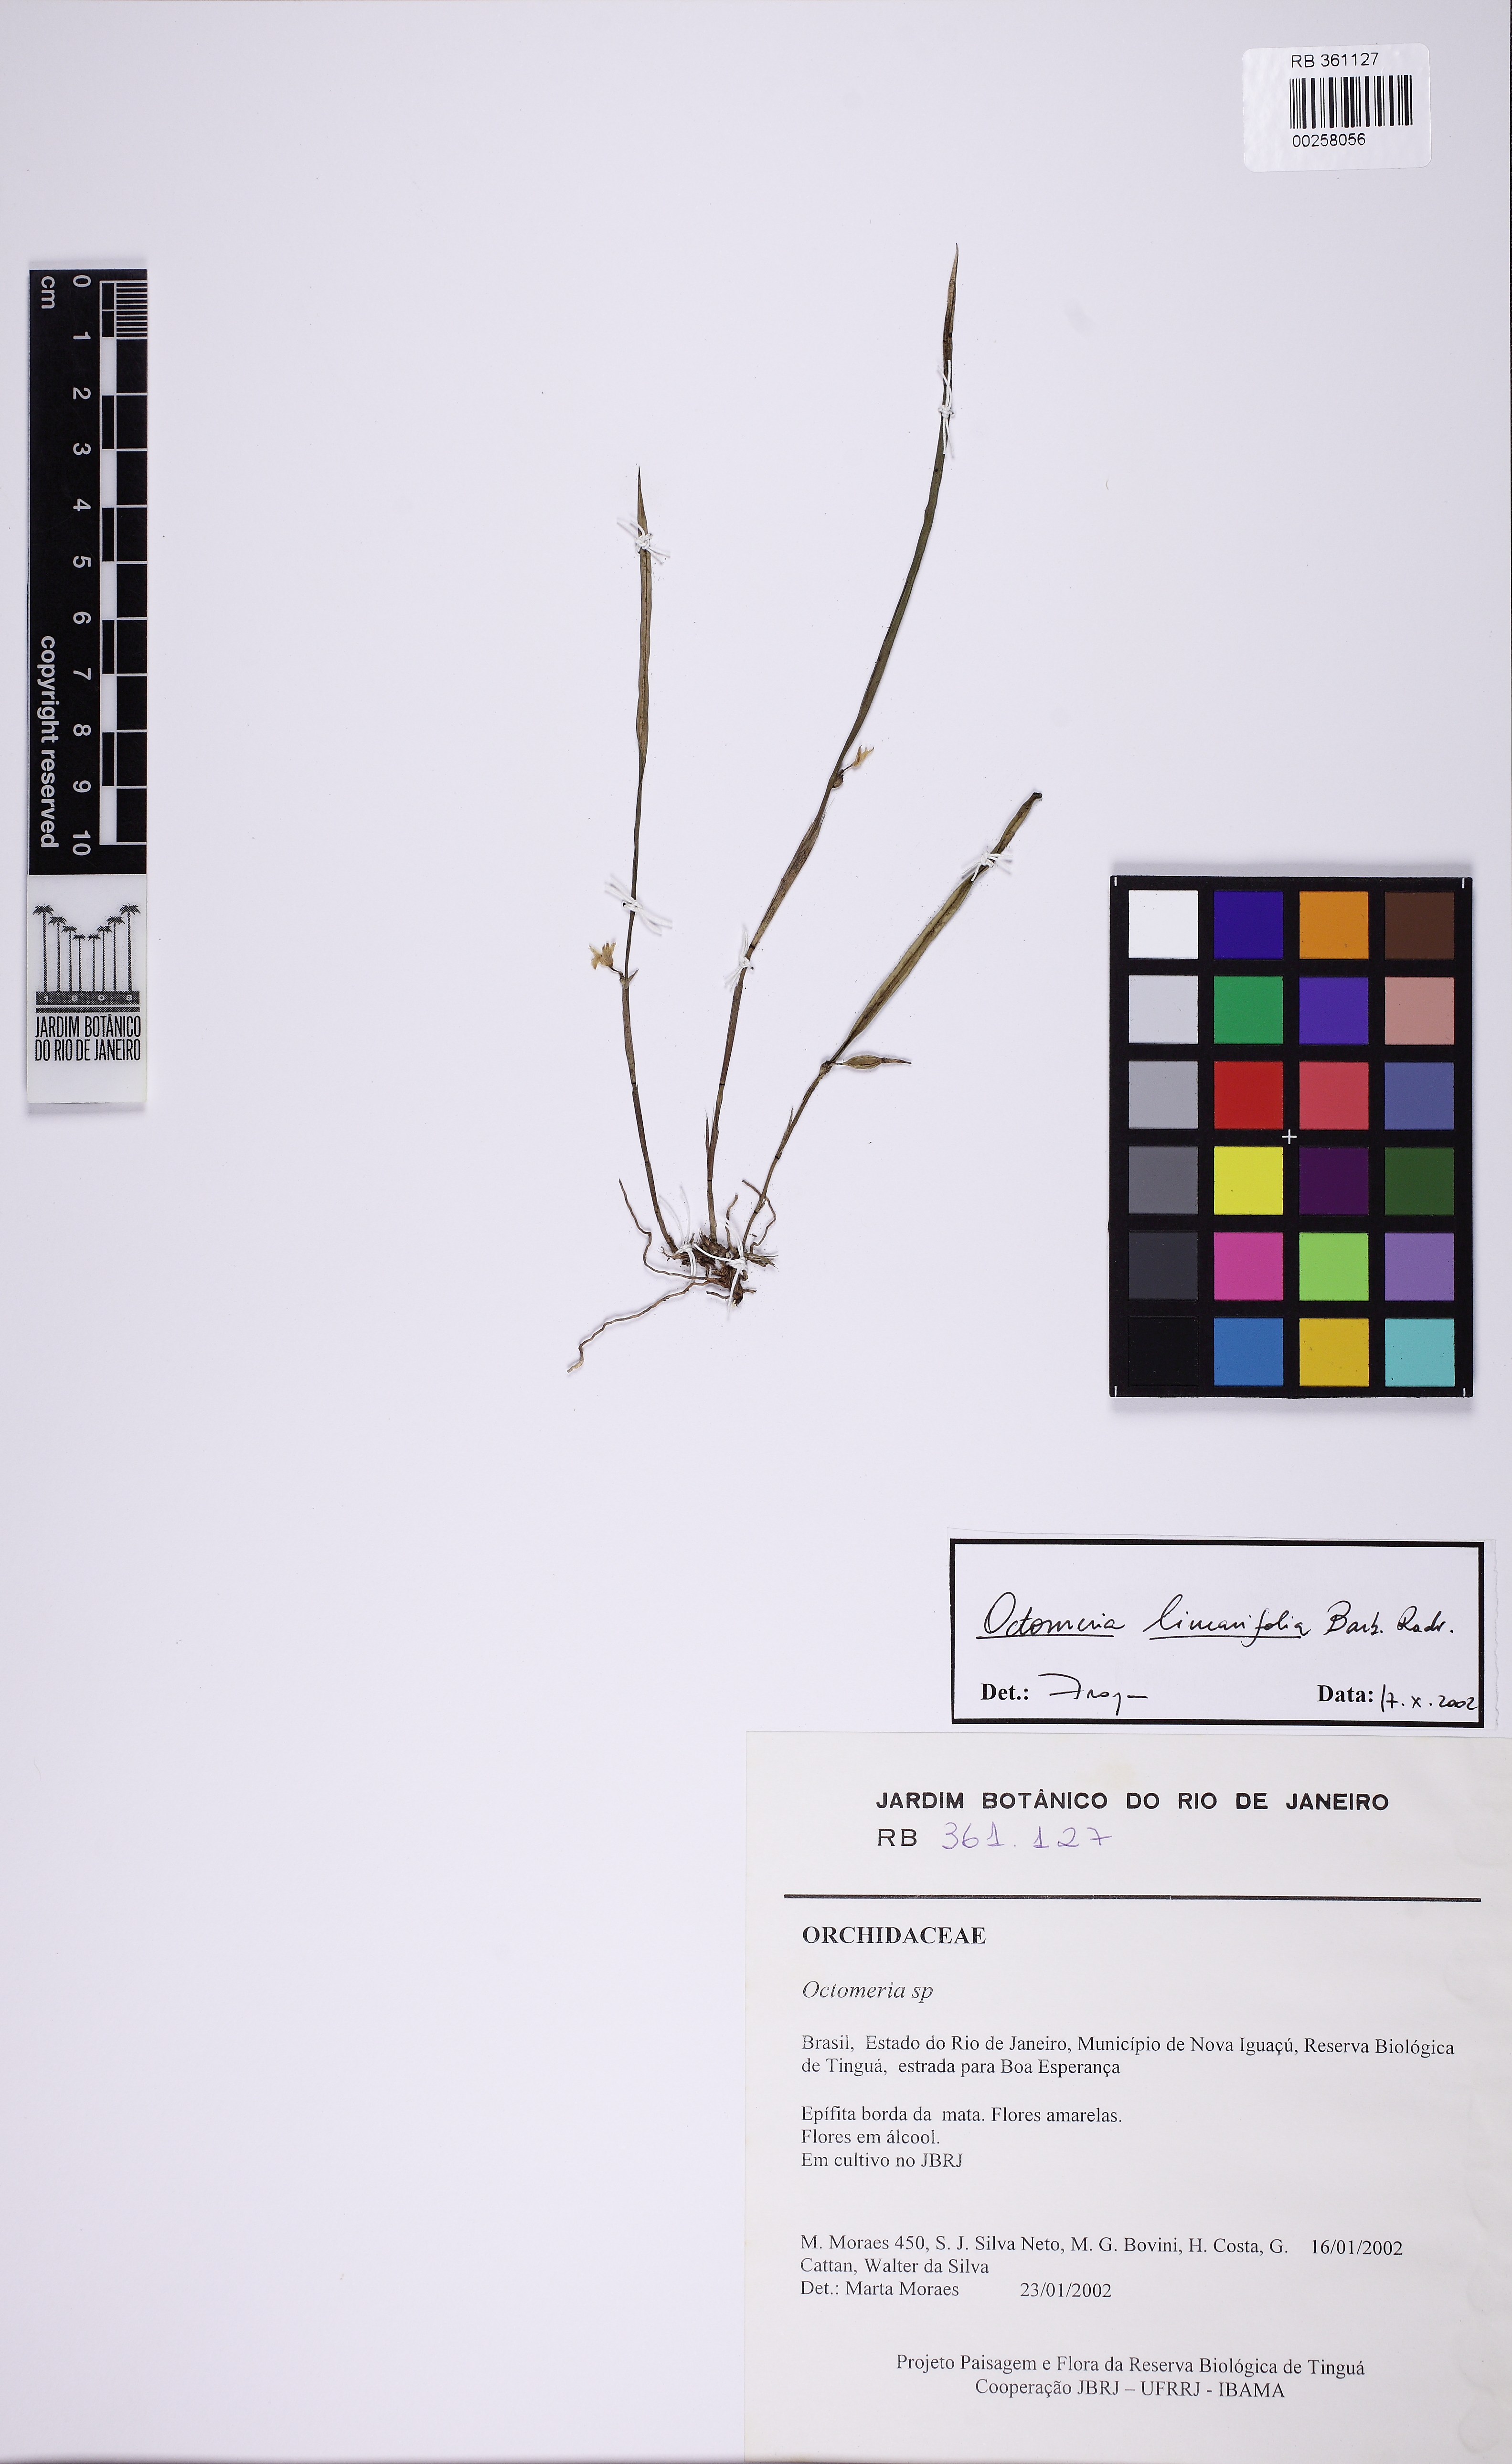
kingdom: Plantae
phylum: Tracheophyta
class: Liliopsida
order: Asparagales
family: Orchidaceae
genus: Octomeria
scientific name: Octomeria linearifolia
